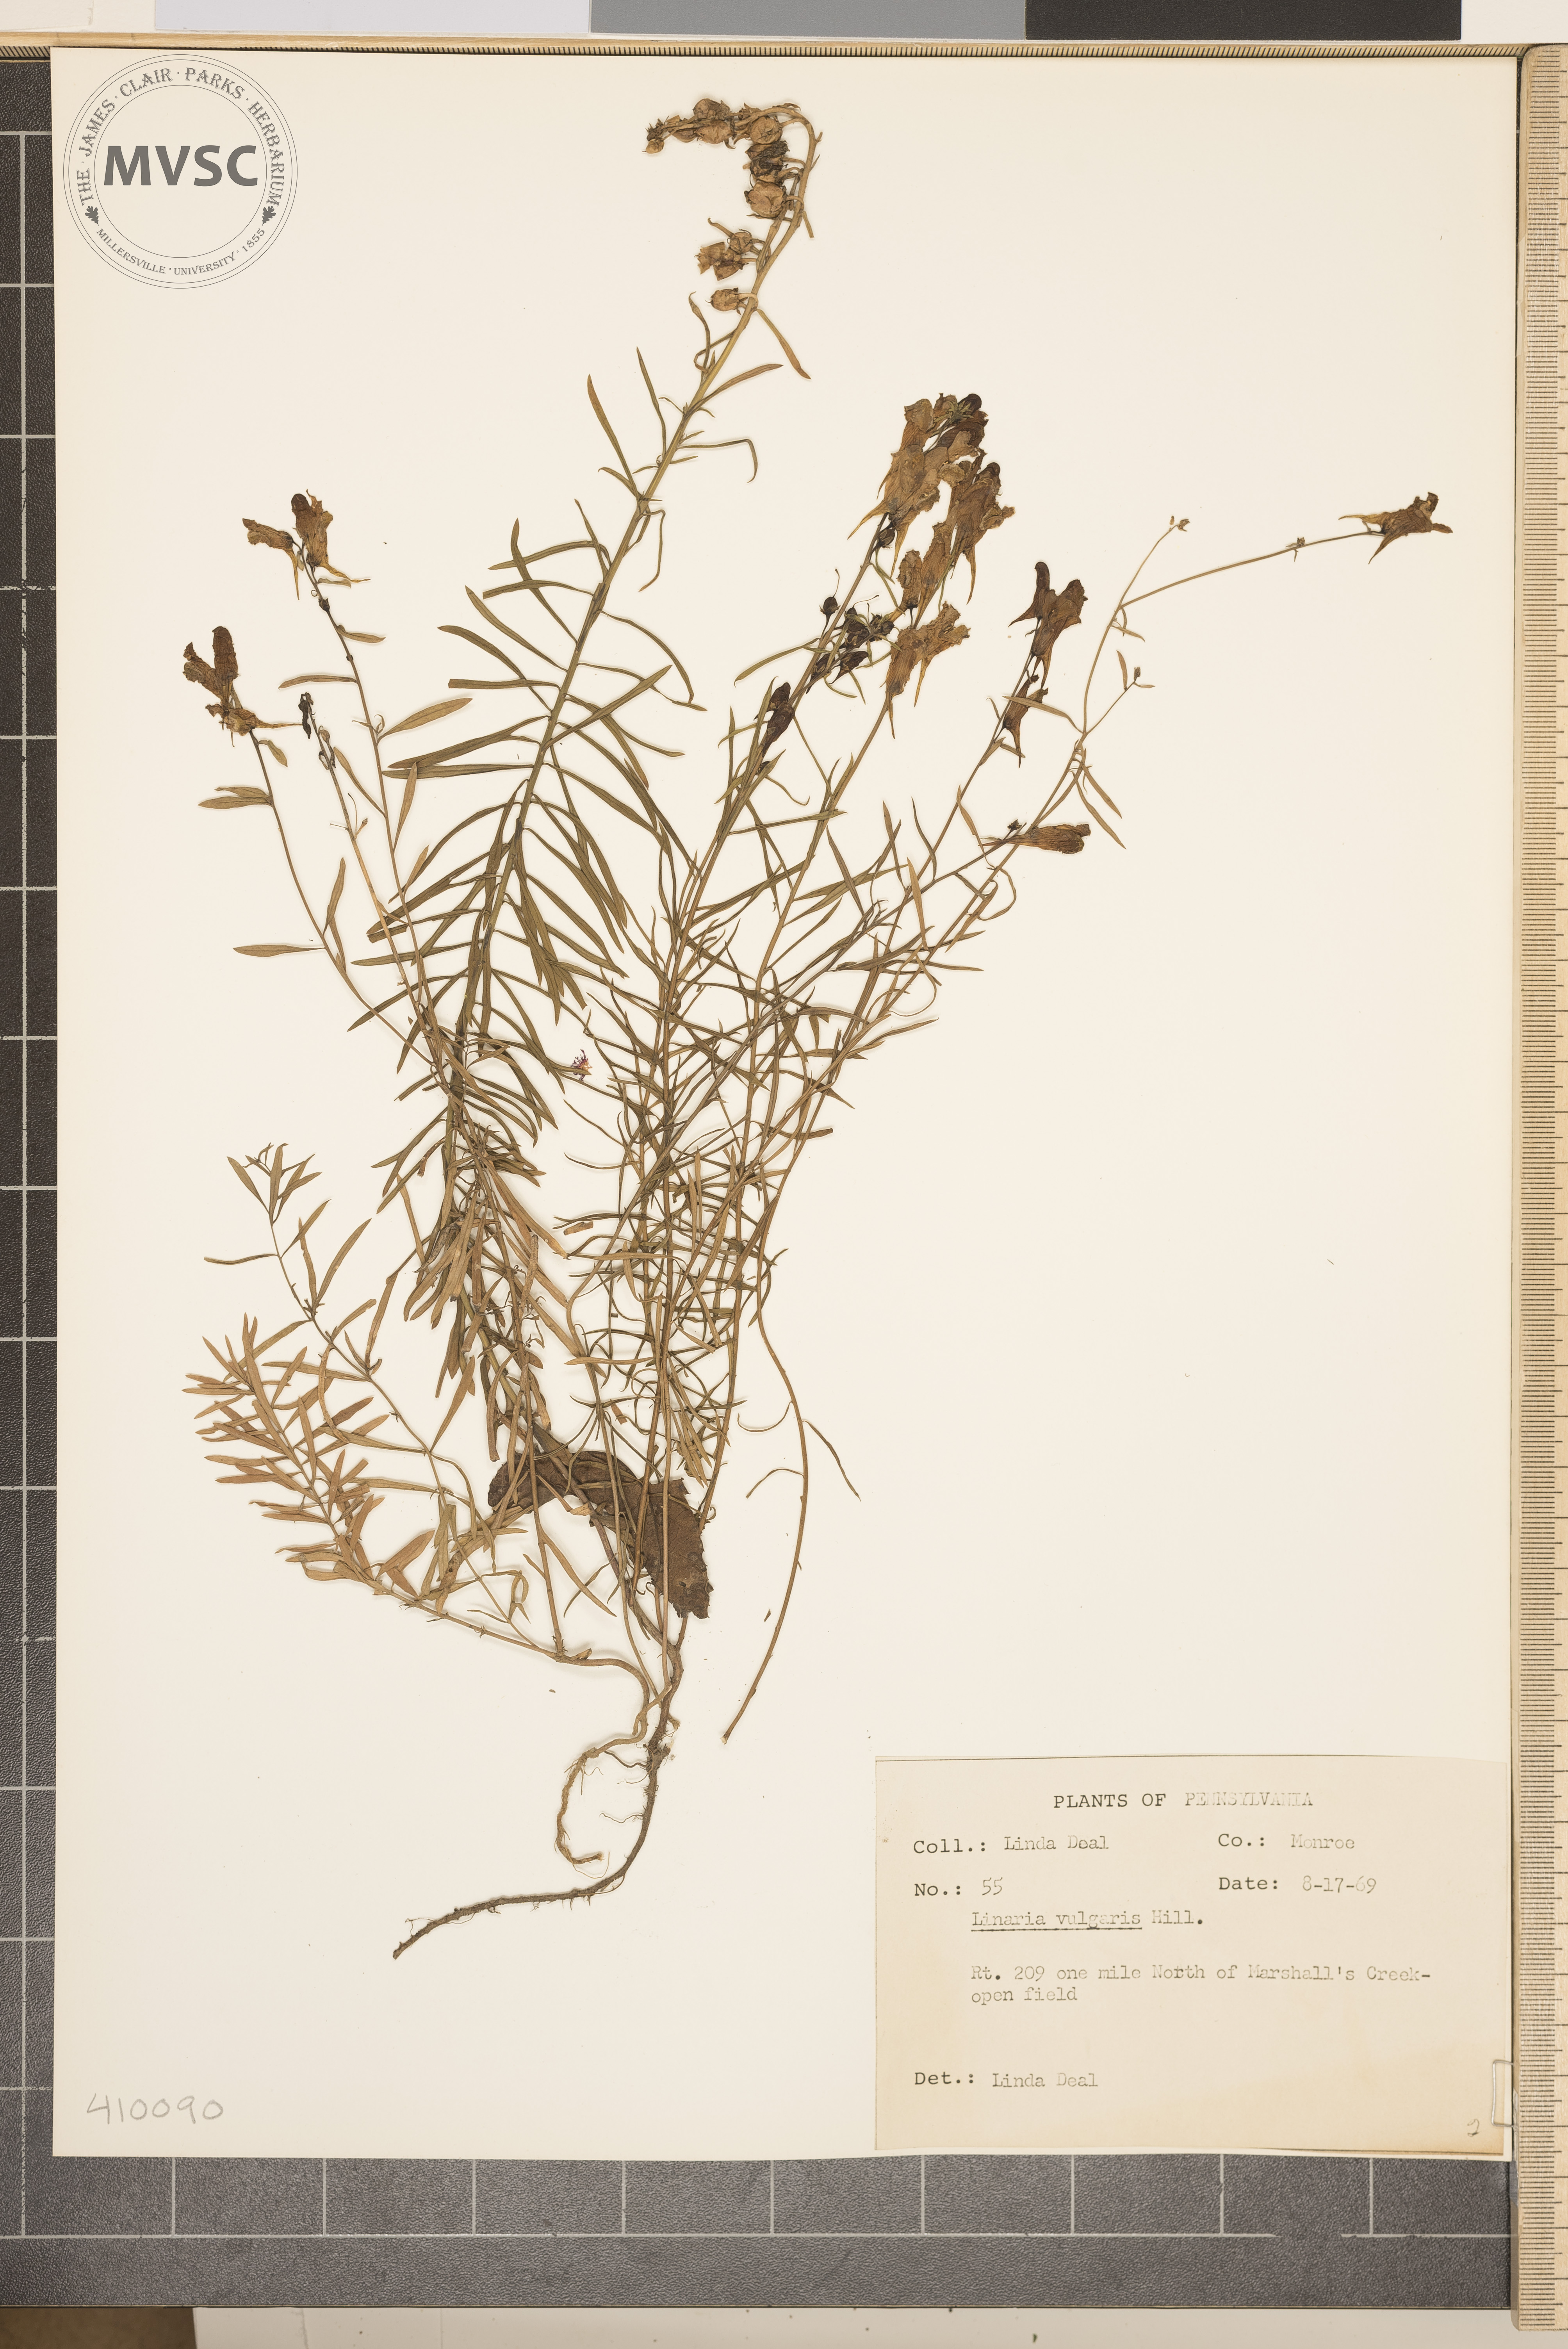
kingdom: Plantae
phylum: Tracheophyta
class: Magnoliopsida
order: Lamiales
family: Plantaginaceae
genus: Linaria
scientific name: Linaria vulgaris
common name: Butter and eggs
